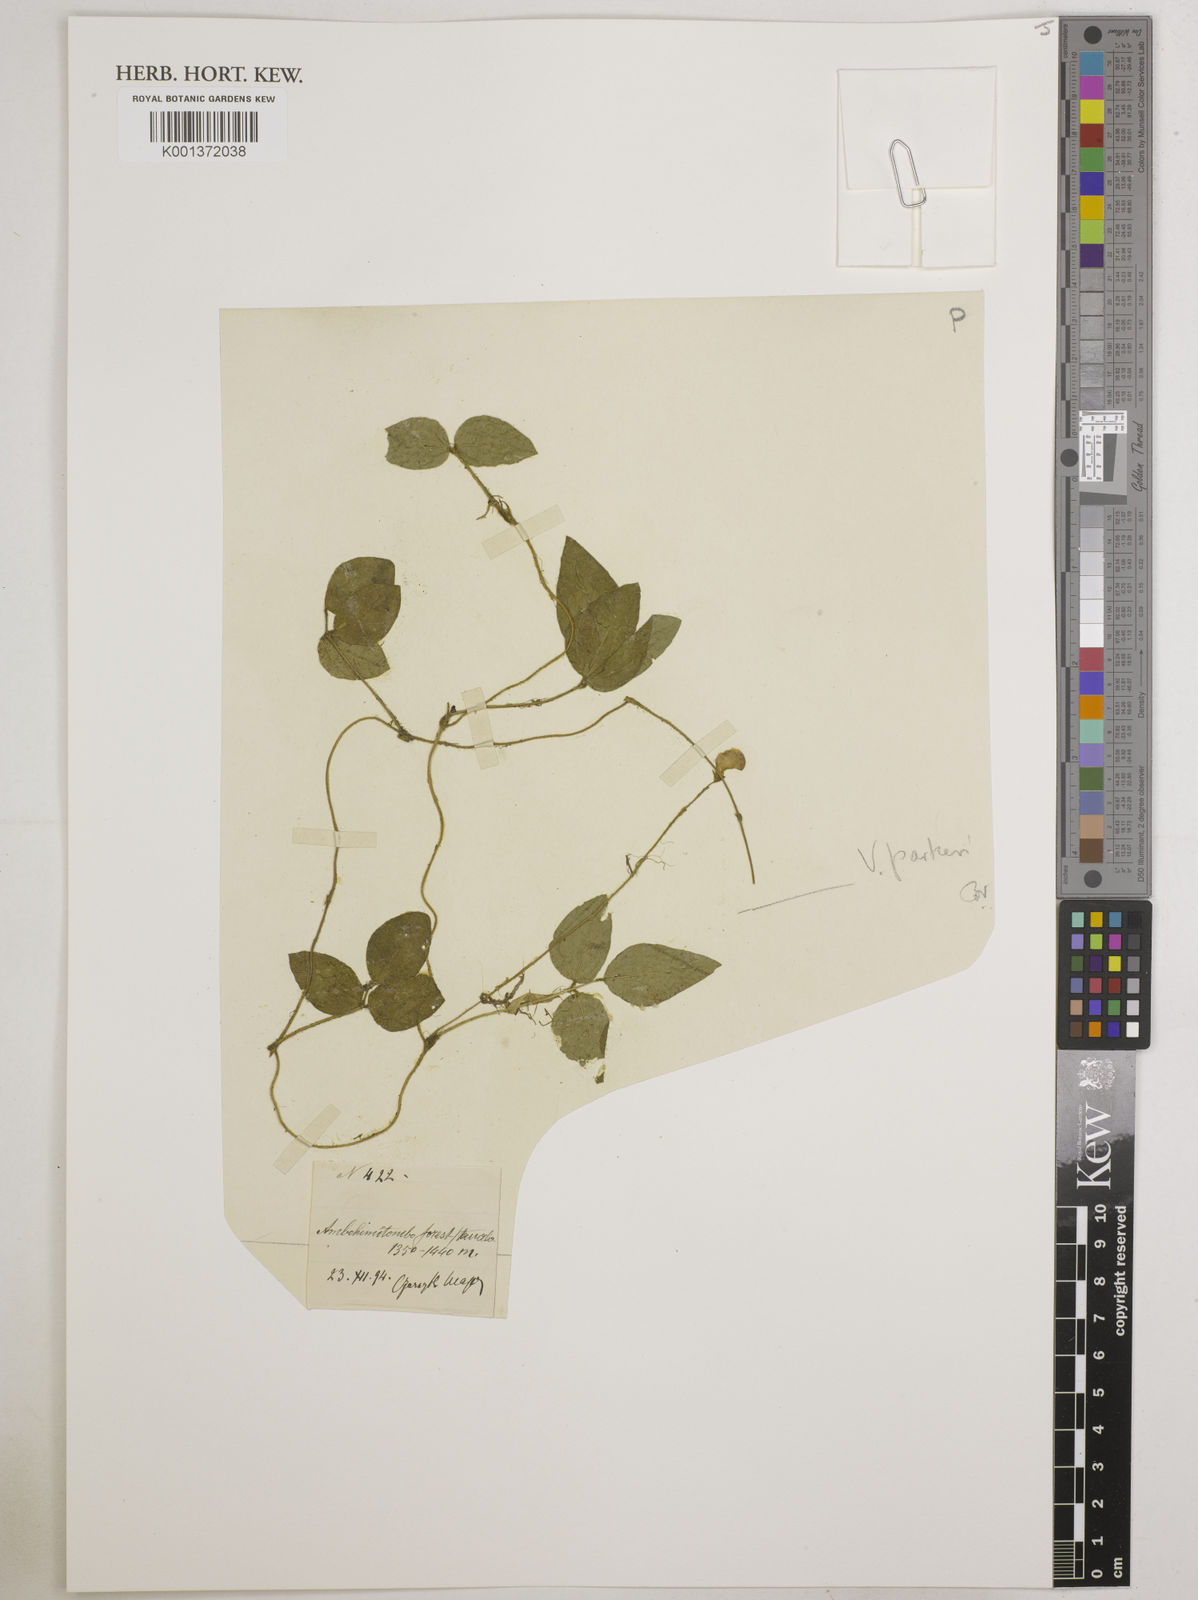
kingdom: Plantae
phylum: Tracheophyta
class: Magnoliopsida
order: Fabales
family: Fabaceae
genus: Vigna
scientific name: Vigna angivensis
